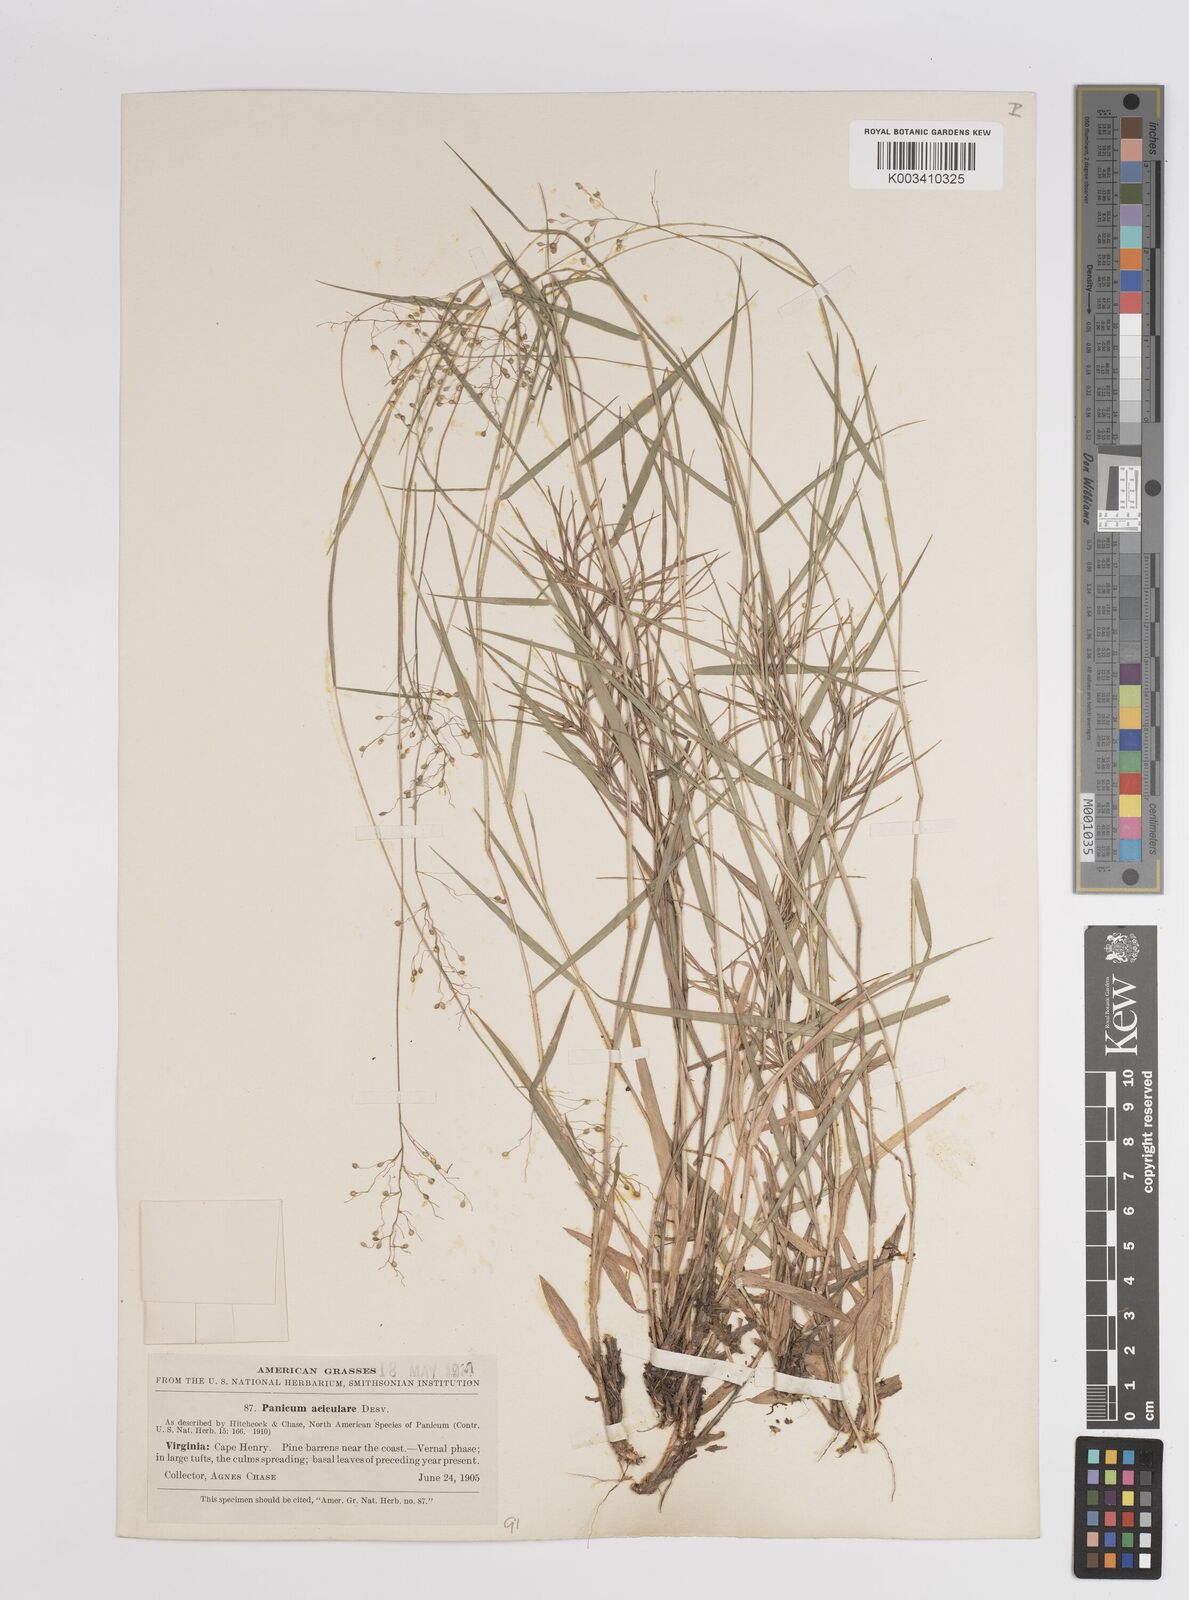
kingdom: Plantae
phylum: Tracheophyta
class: Liliopsida
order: Poales
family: Poaceae
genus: Dichanthelium
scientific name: Dichanthelium aciculare
